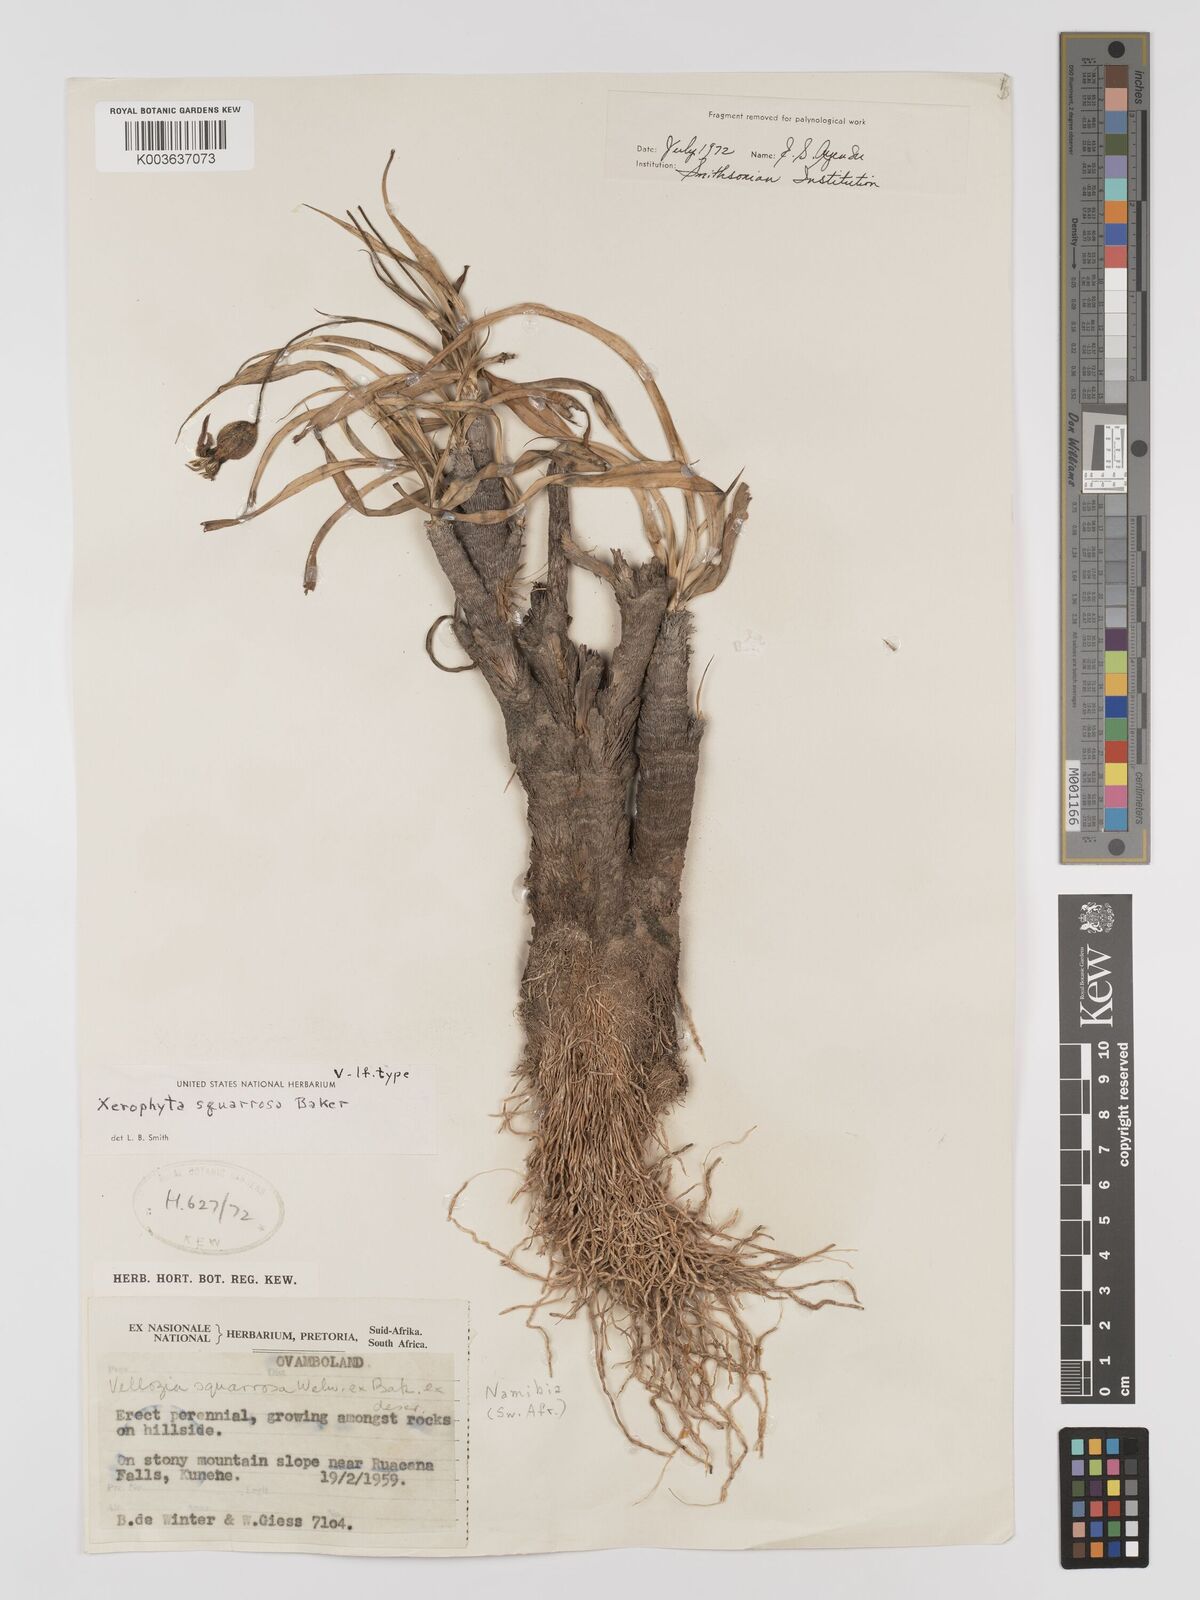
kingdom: Plantae
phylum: Tracheophyta
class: Liliopsida
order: Pandanales
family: Velloziaceae
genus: Xerophyta
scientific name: Xerophyta squarrosa
